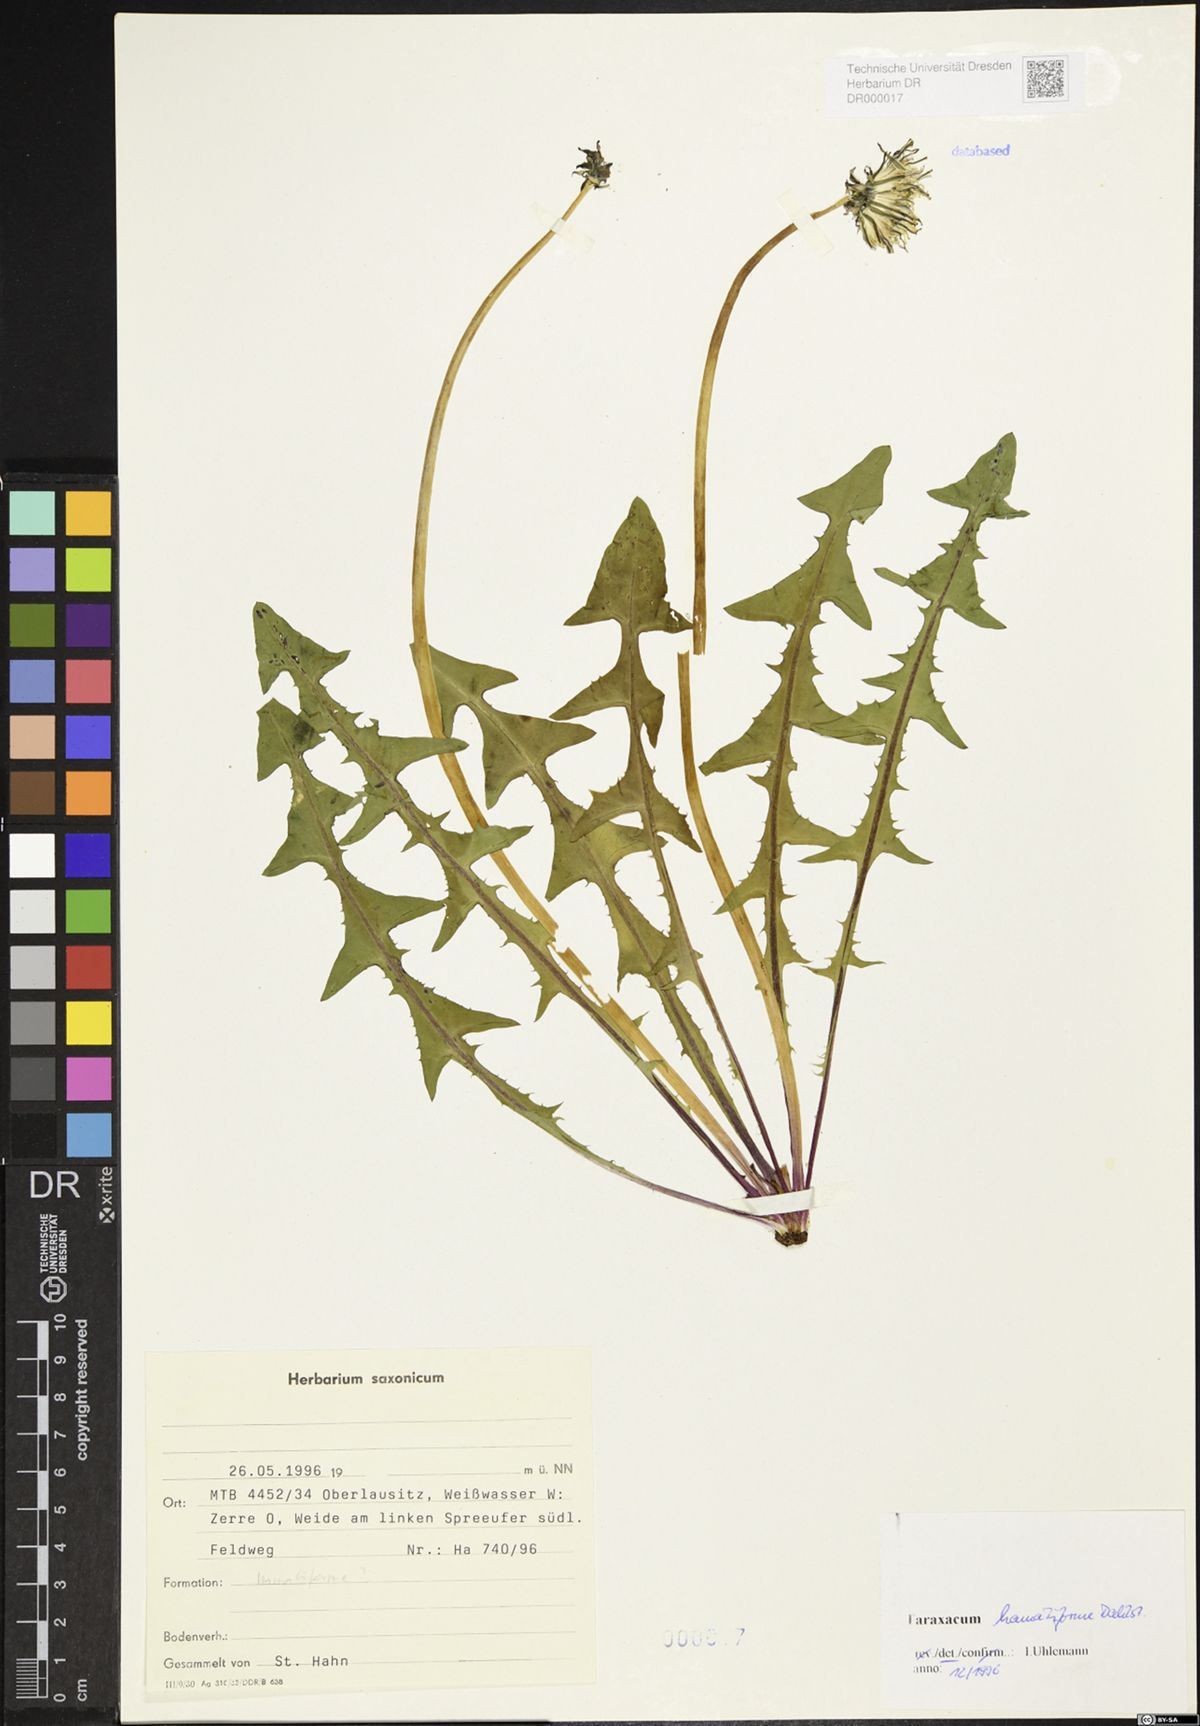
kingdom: Plantae
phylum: Tracheophyta
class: Magnoliopsida
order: Asterales
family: Asteraceae
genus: Taraxacum
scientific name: Taraxacum hamatiforme
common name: Asymmetrical hook-lobed dandelion
